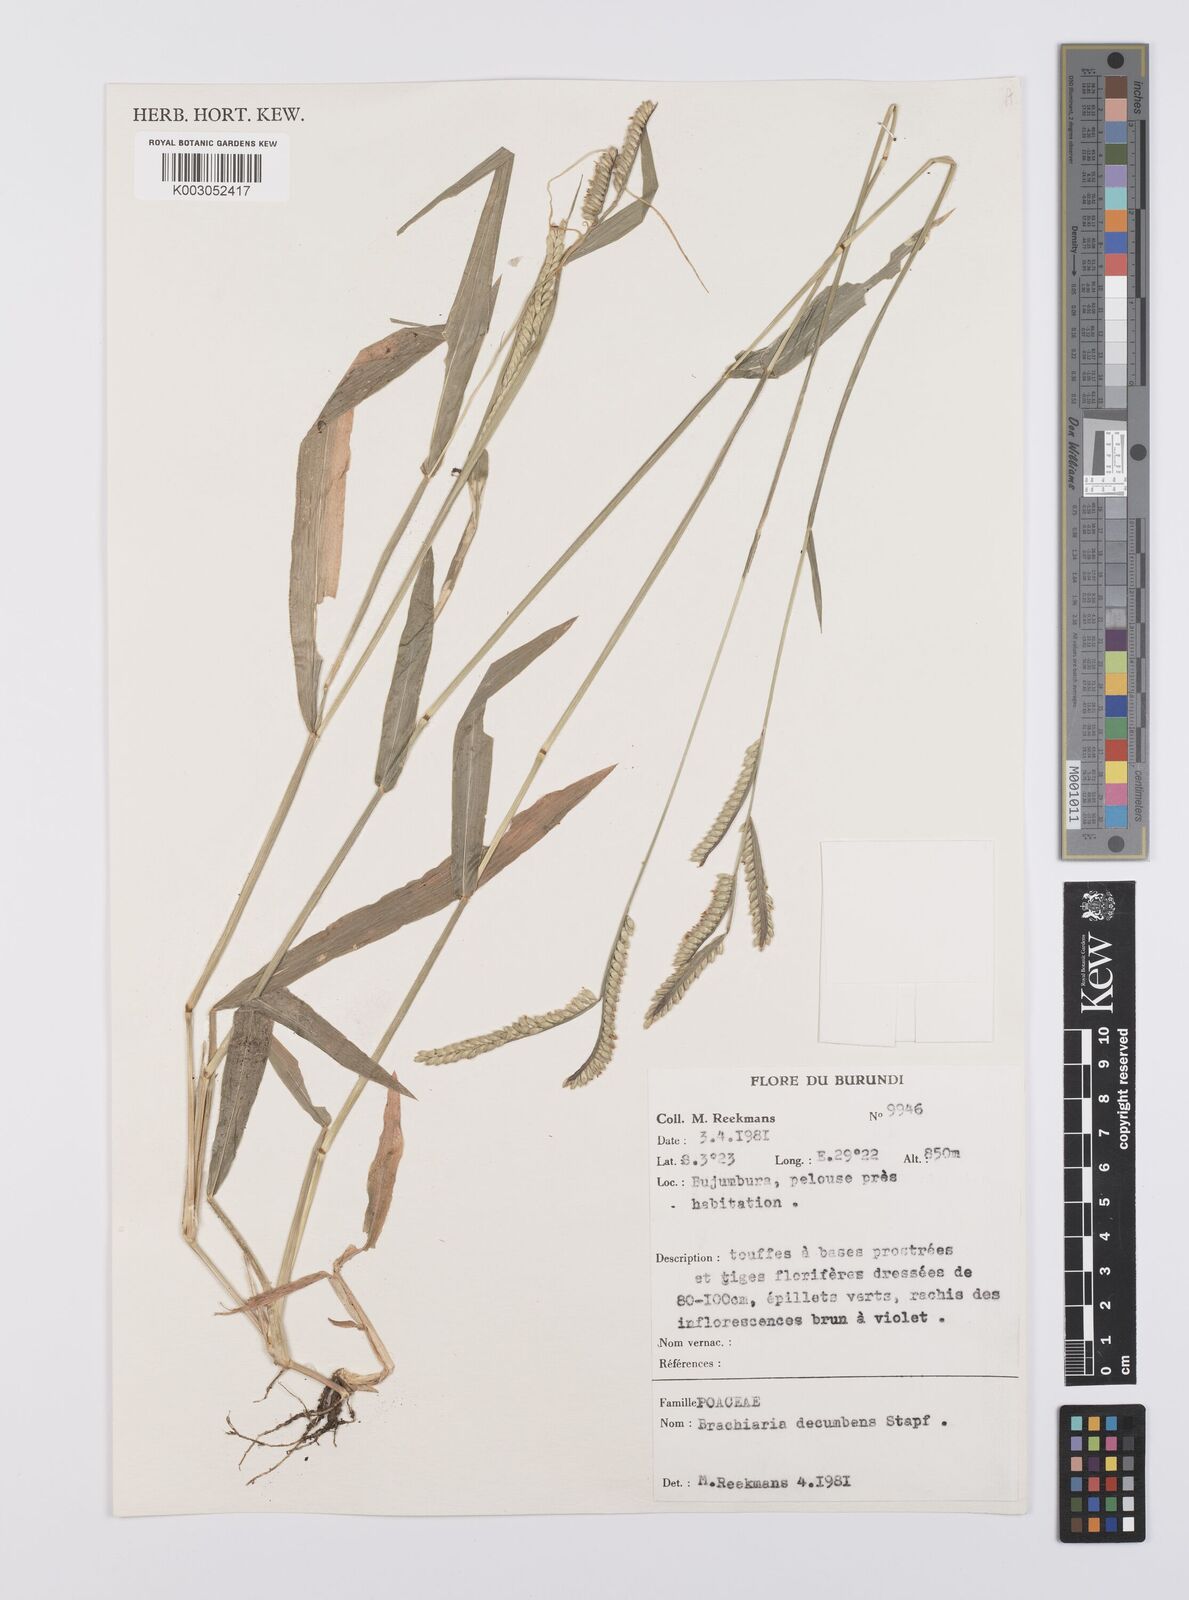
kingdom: Plantae
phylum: Tracheophyta
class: Liliopsida
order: Poales
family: Poaceae
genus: Urochloa
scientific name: Urochloa eminii
